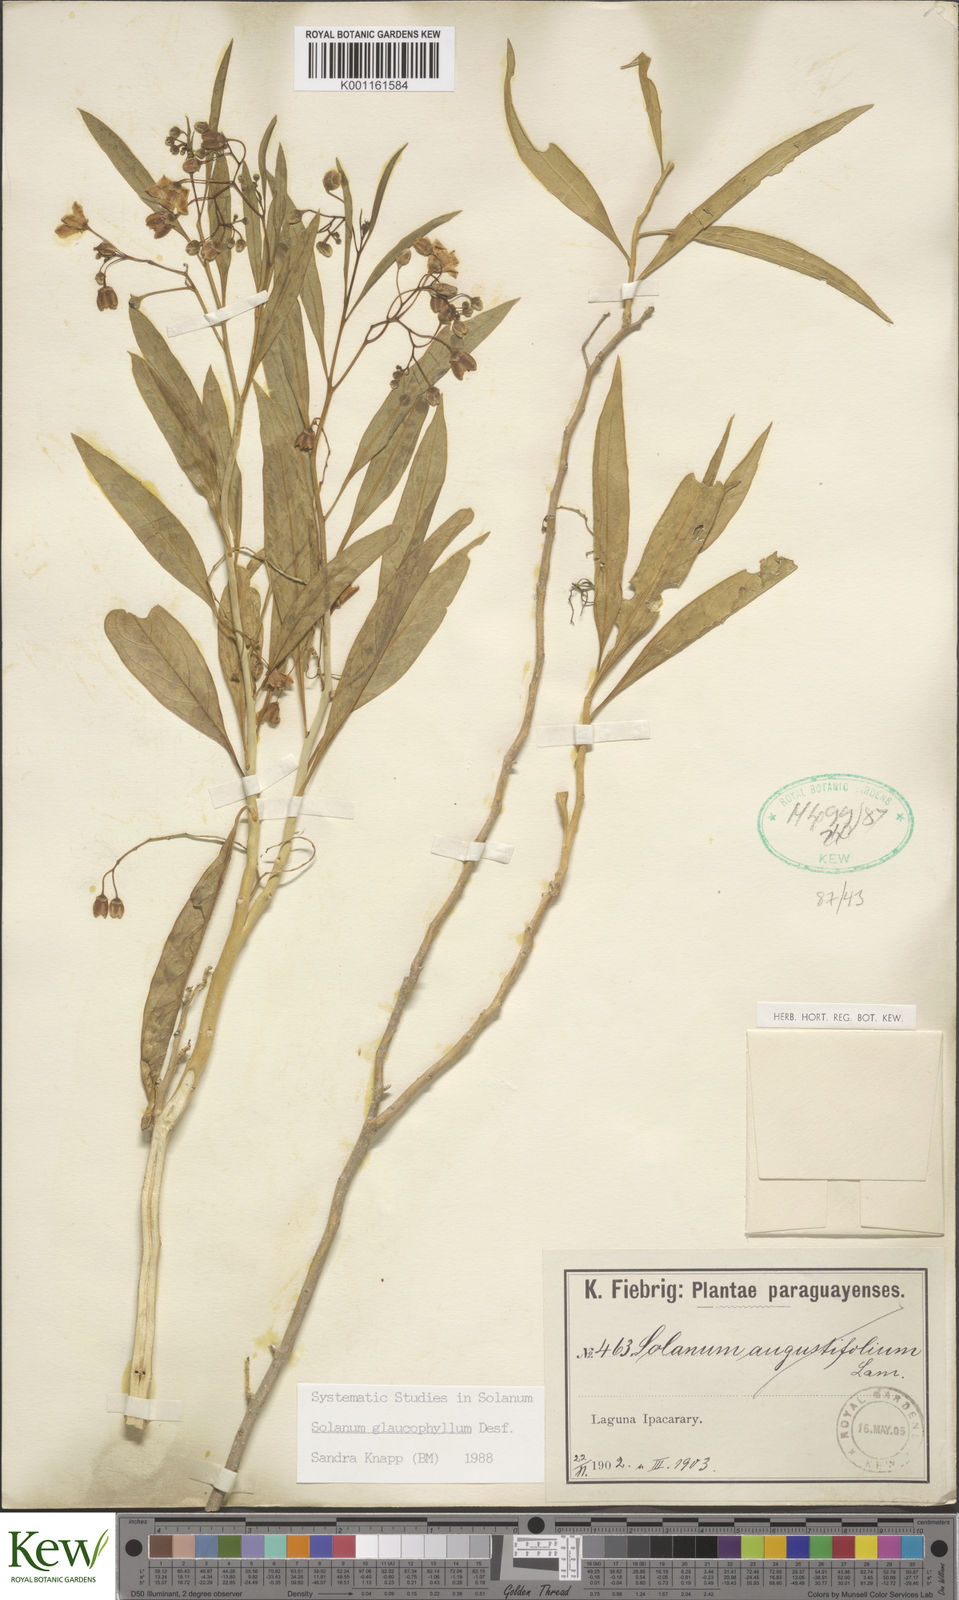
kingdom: Plantae
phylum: Tracheophyta
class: Magnoliopsida
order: Solanales
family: Solanaceae
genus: Solanum
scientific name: Solanum glaucophyllum
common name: Waxyleaf nightshade
